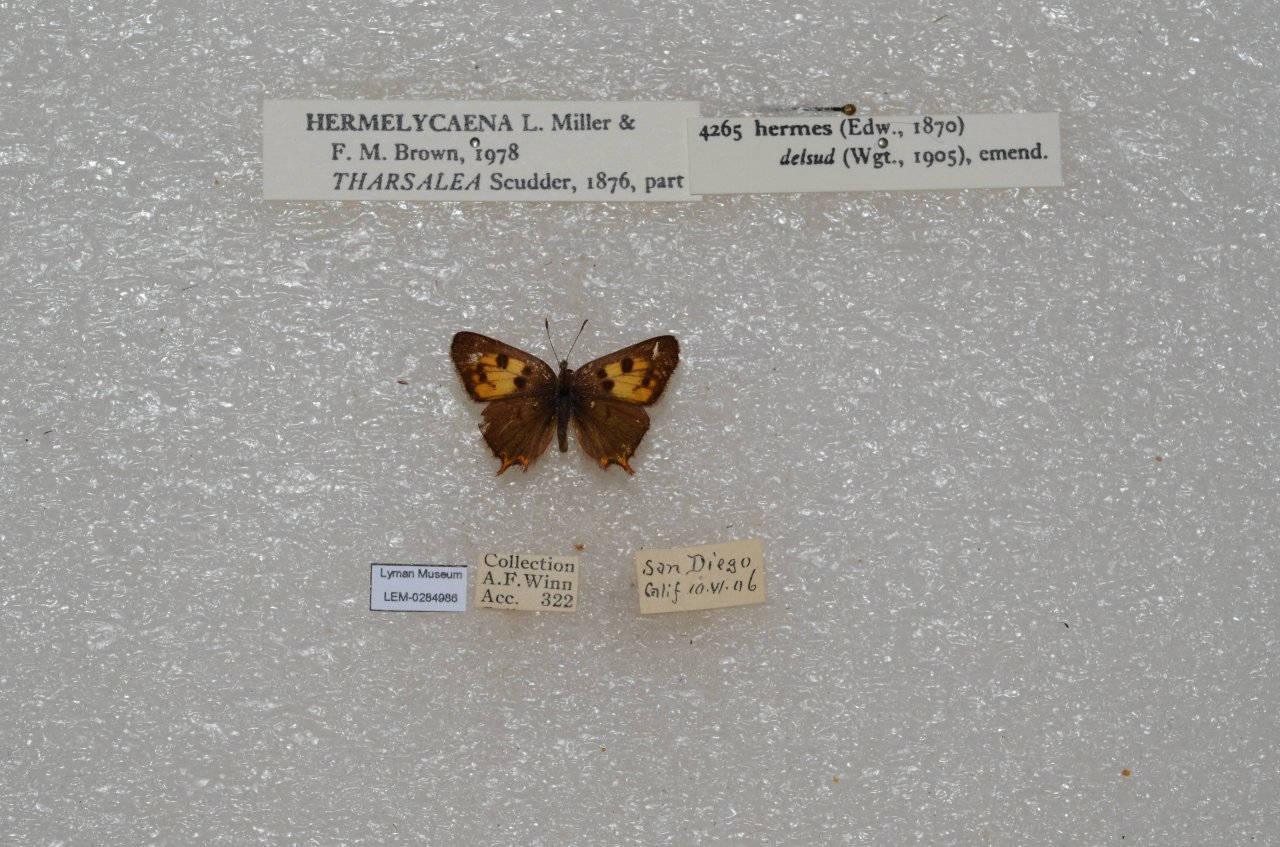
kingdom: Animalia
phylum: Arthropoda
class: Insecta
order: Lepidoptera
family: Lycaenidae
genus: Hermelycaena
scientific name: Hermelycaena hermes
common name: Hermes Copper
